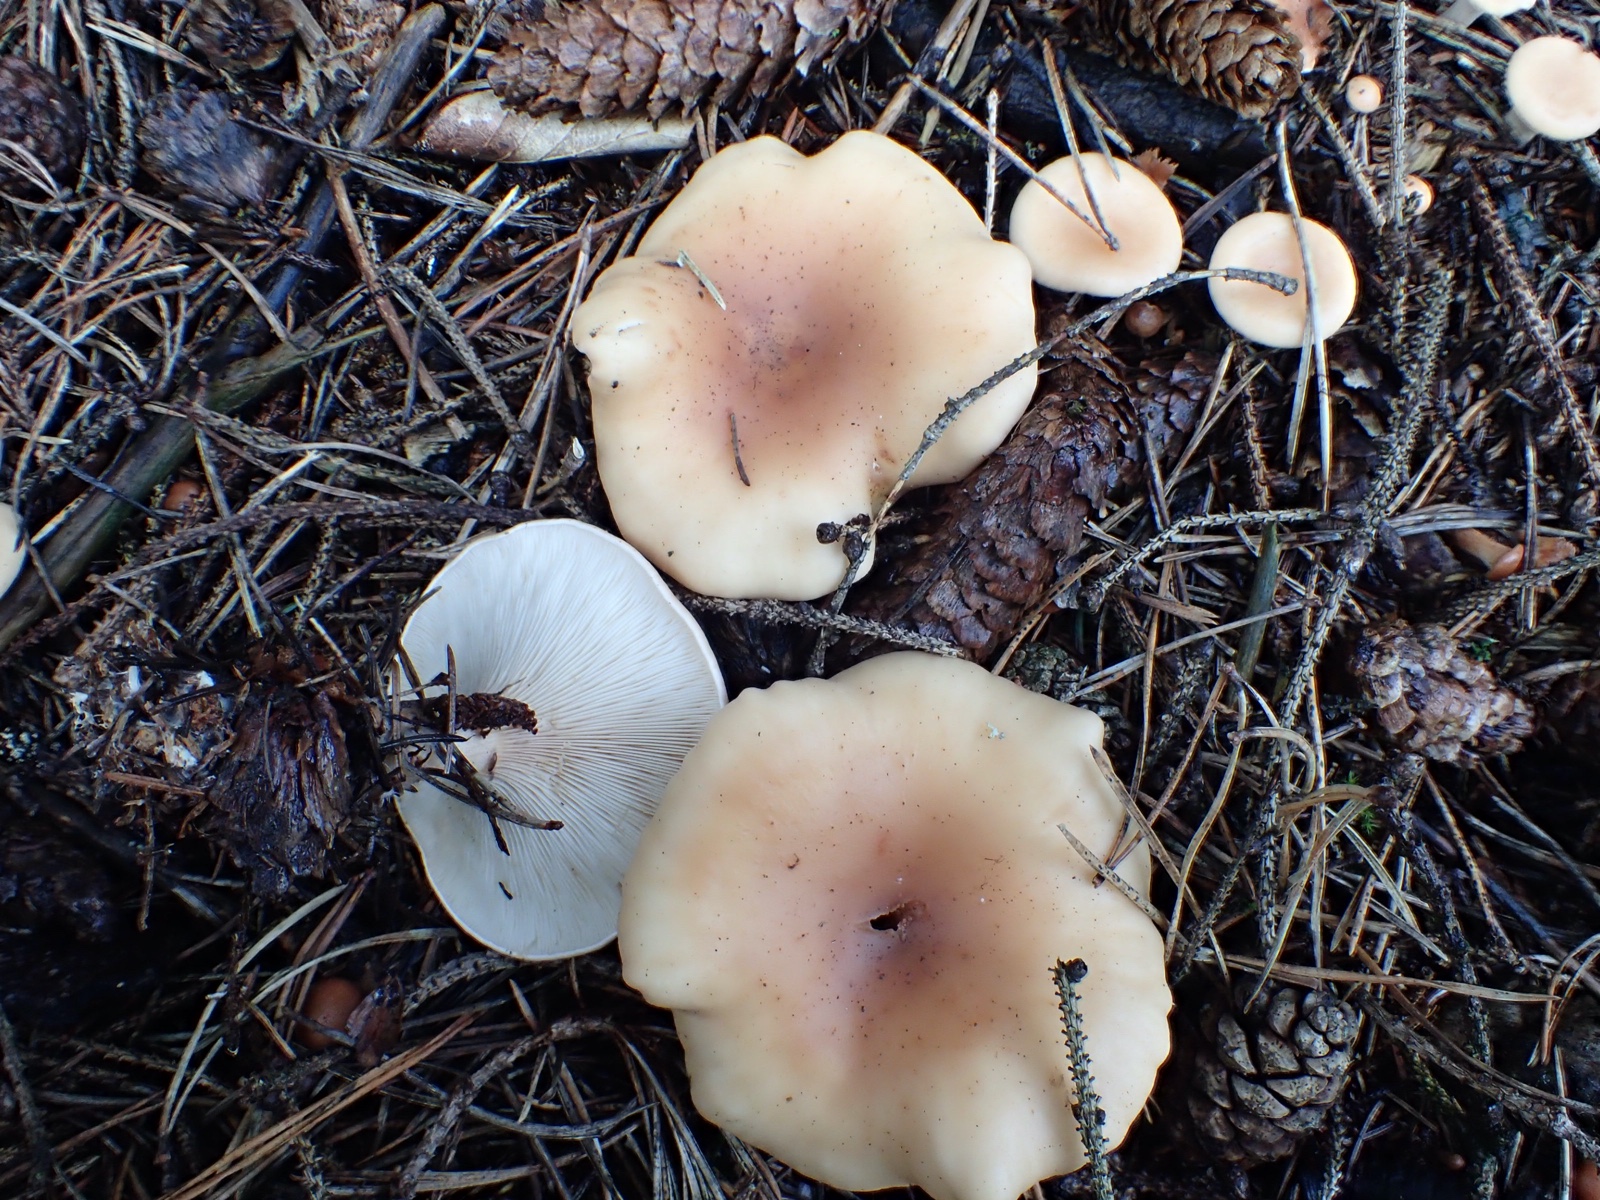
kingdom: Fungi
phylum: Basidiomycota
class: Agaricomycetes
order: Agaricales
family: Tricholomataceae
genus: Paralepista
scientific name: Paralepista flaccida
